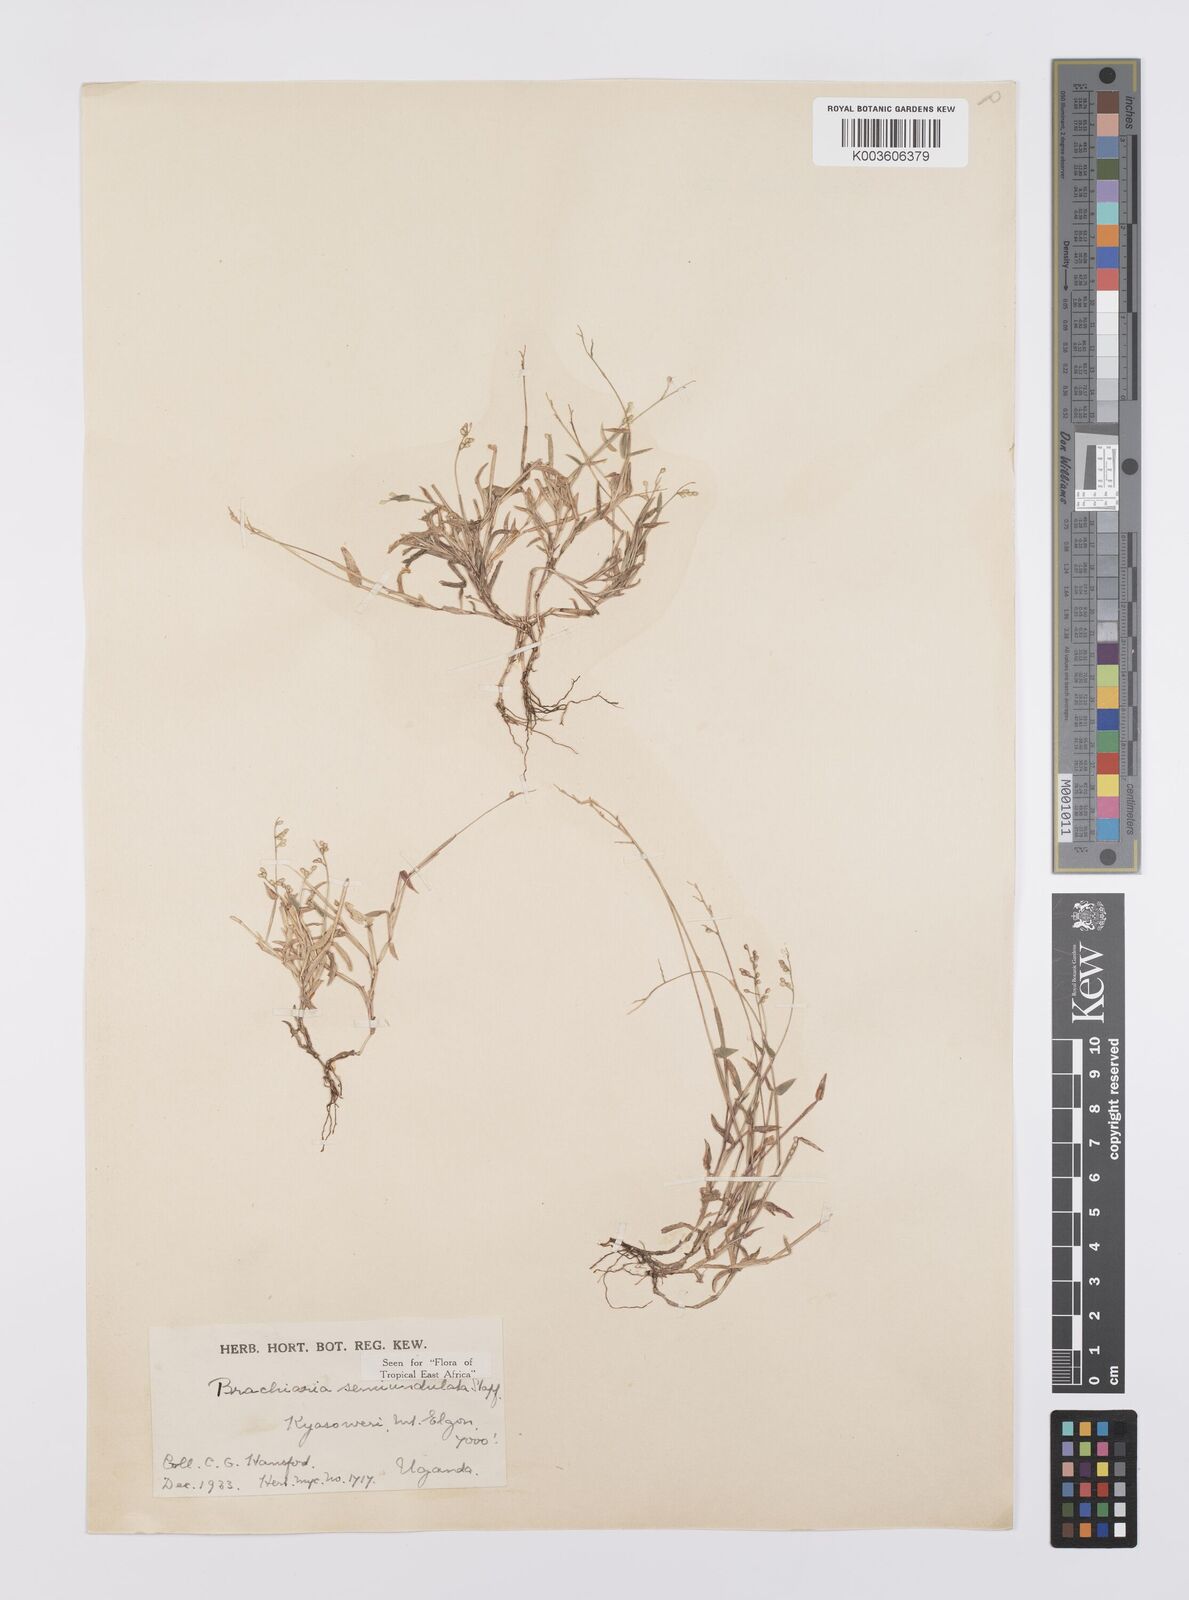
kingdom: Plantae
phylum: Tracheophyta
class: Liliopsida
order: Poales
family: Poaceae
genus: Urochloa
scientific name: Urochloa semiundulata
